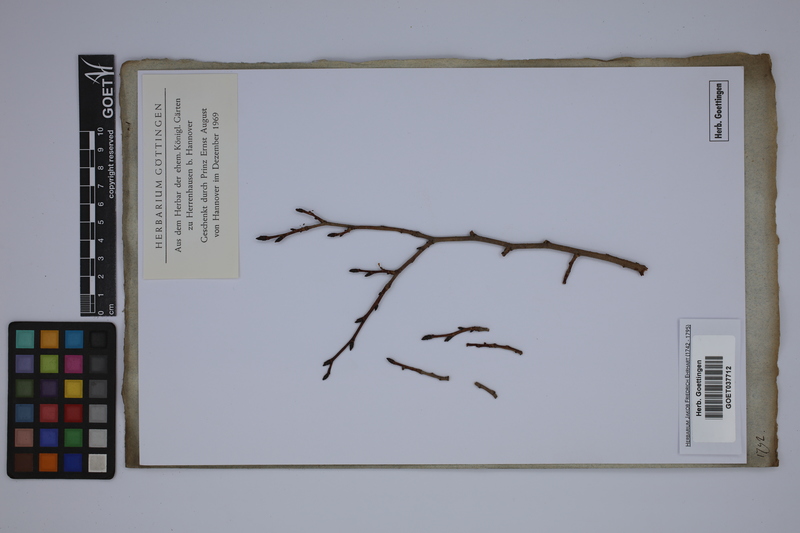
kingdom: Plantae
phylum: Tracheophyta
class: Magnoliopsida
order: Rosales
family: Ulmaceae
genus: Ulmus
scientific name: Ulmus
